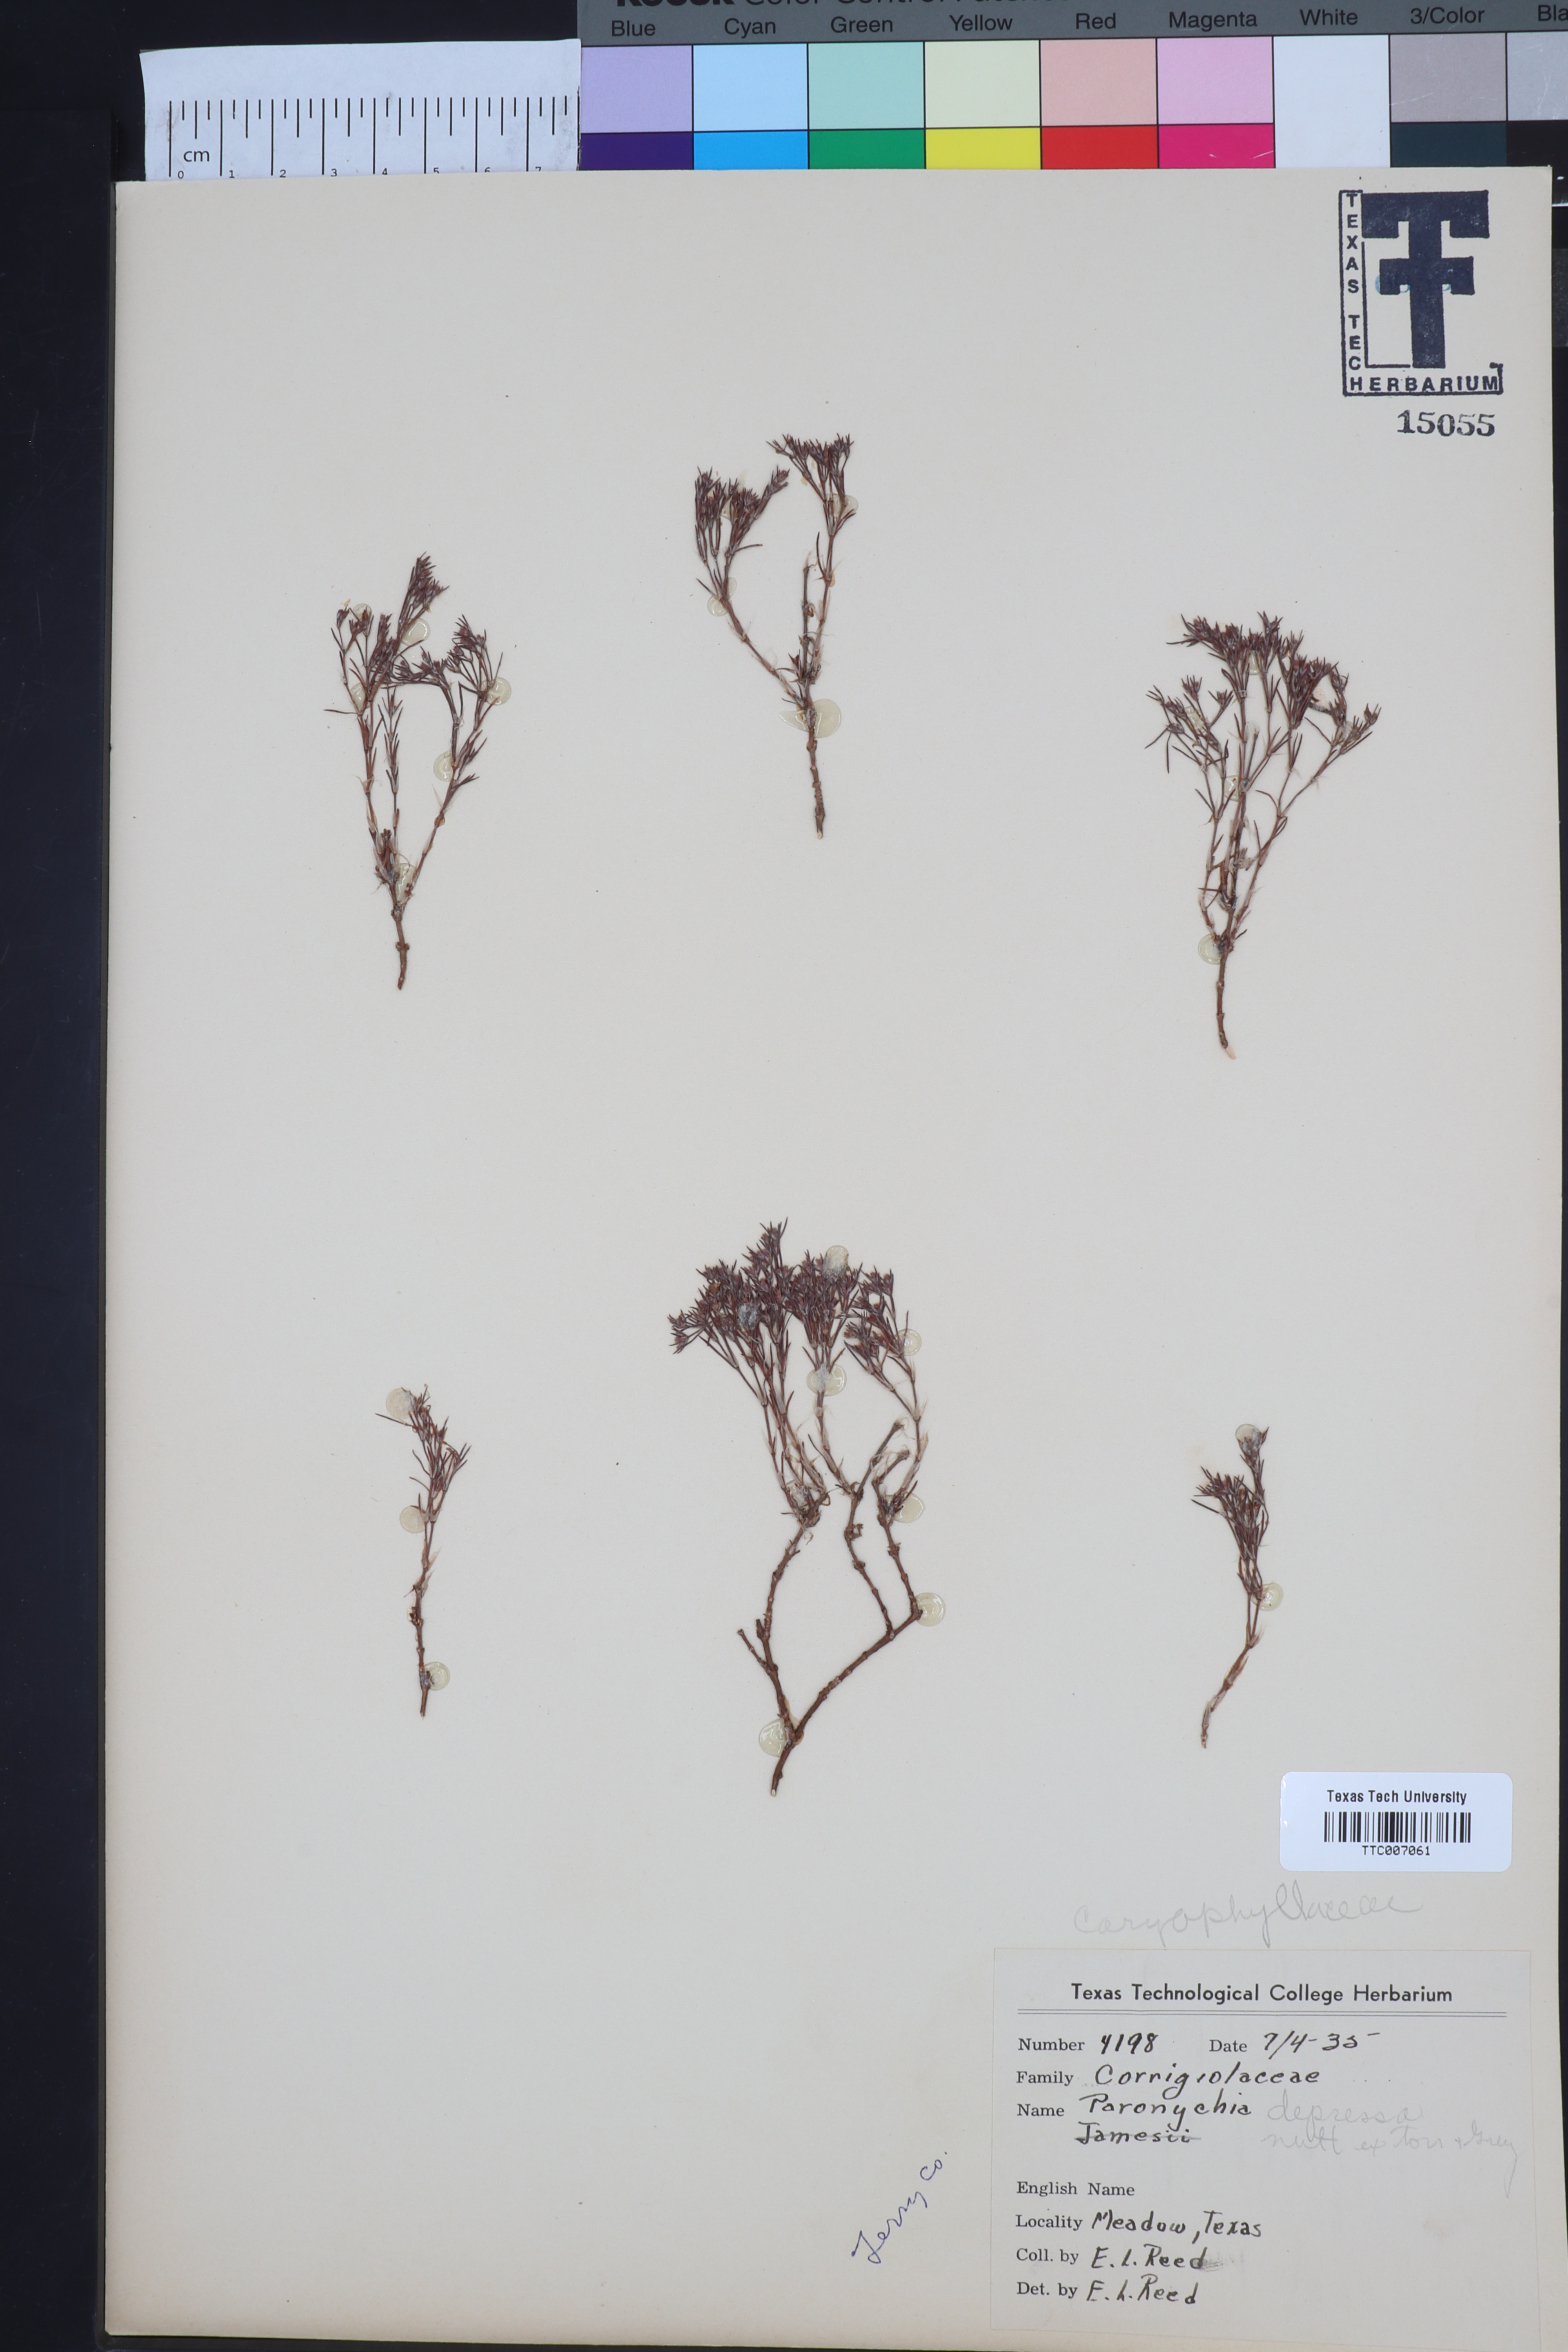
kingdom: Plantae
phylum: Tracheophyta
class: Magnoliopsida
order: Caryophyllales
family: Caryophyllaceae
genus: Paronychia
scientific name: Paronychia jamesii
